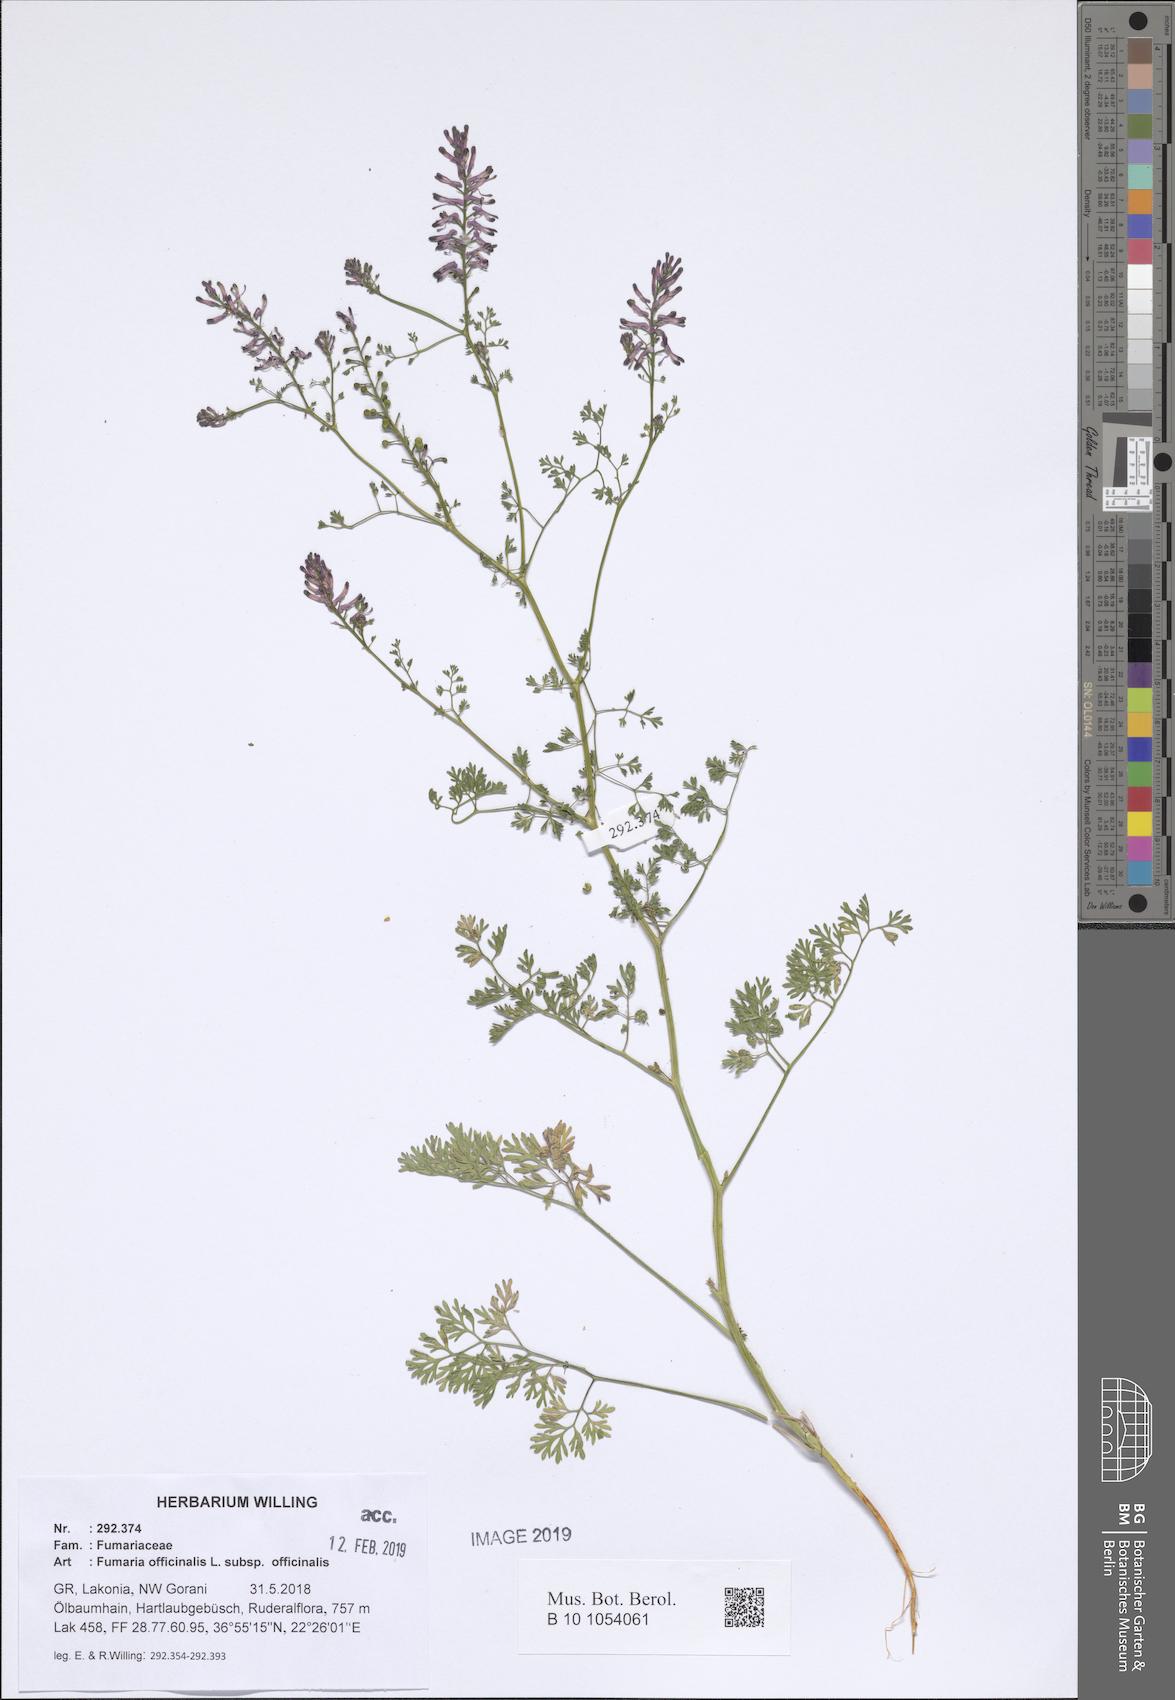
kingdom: Plantae
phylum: Tracheophyta
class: Magnoliopsida
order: Ranunculales
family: Papaveraceae
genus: Fumaria
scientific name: Fumaria officinalis
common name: Common fumitory
